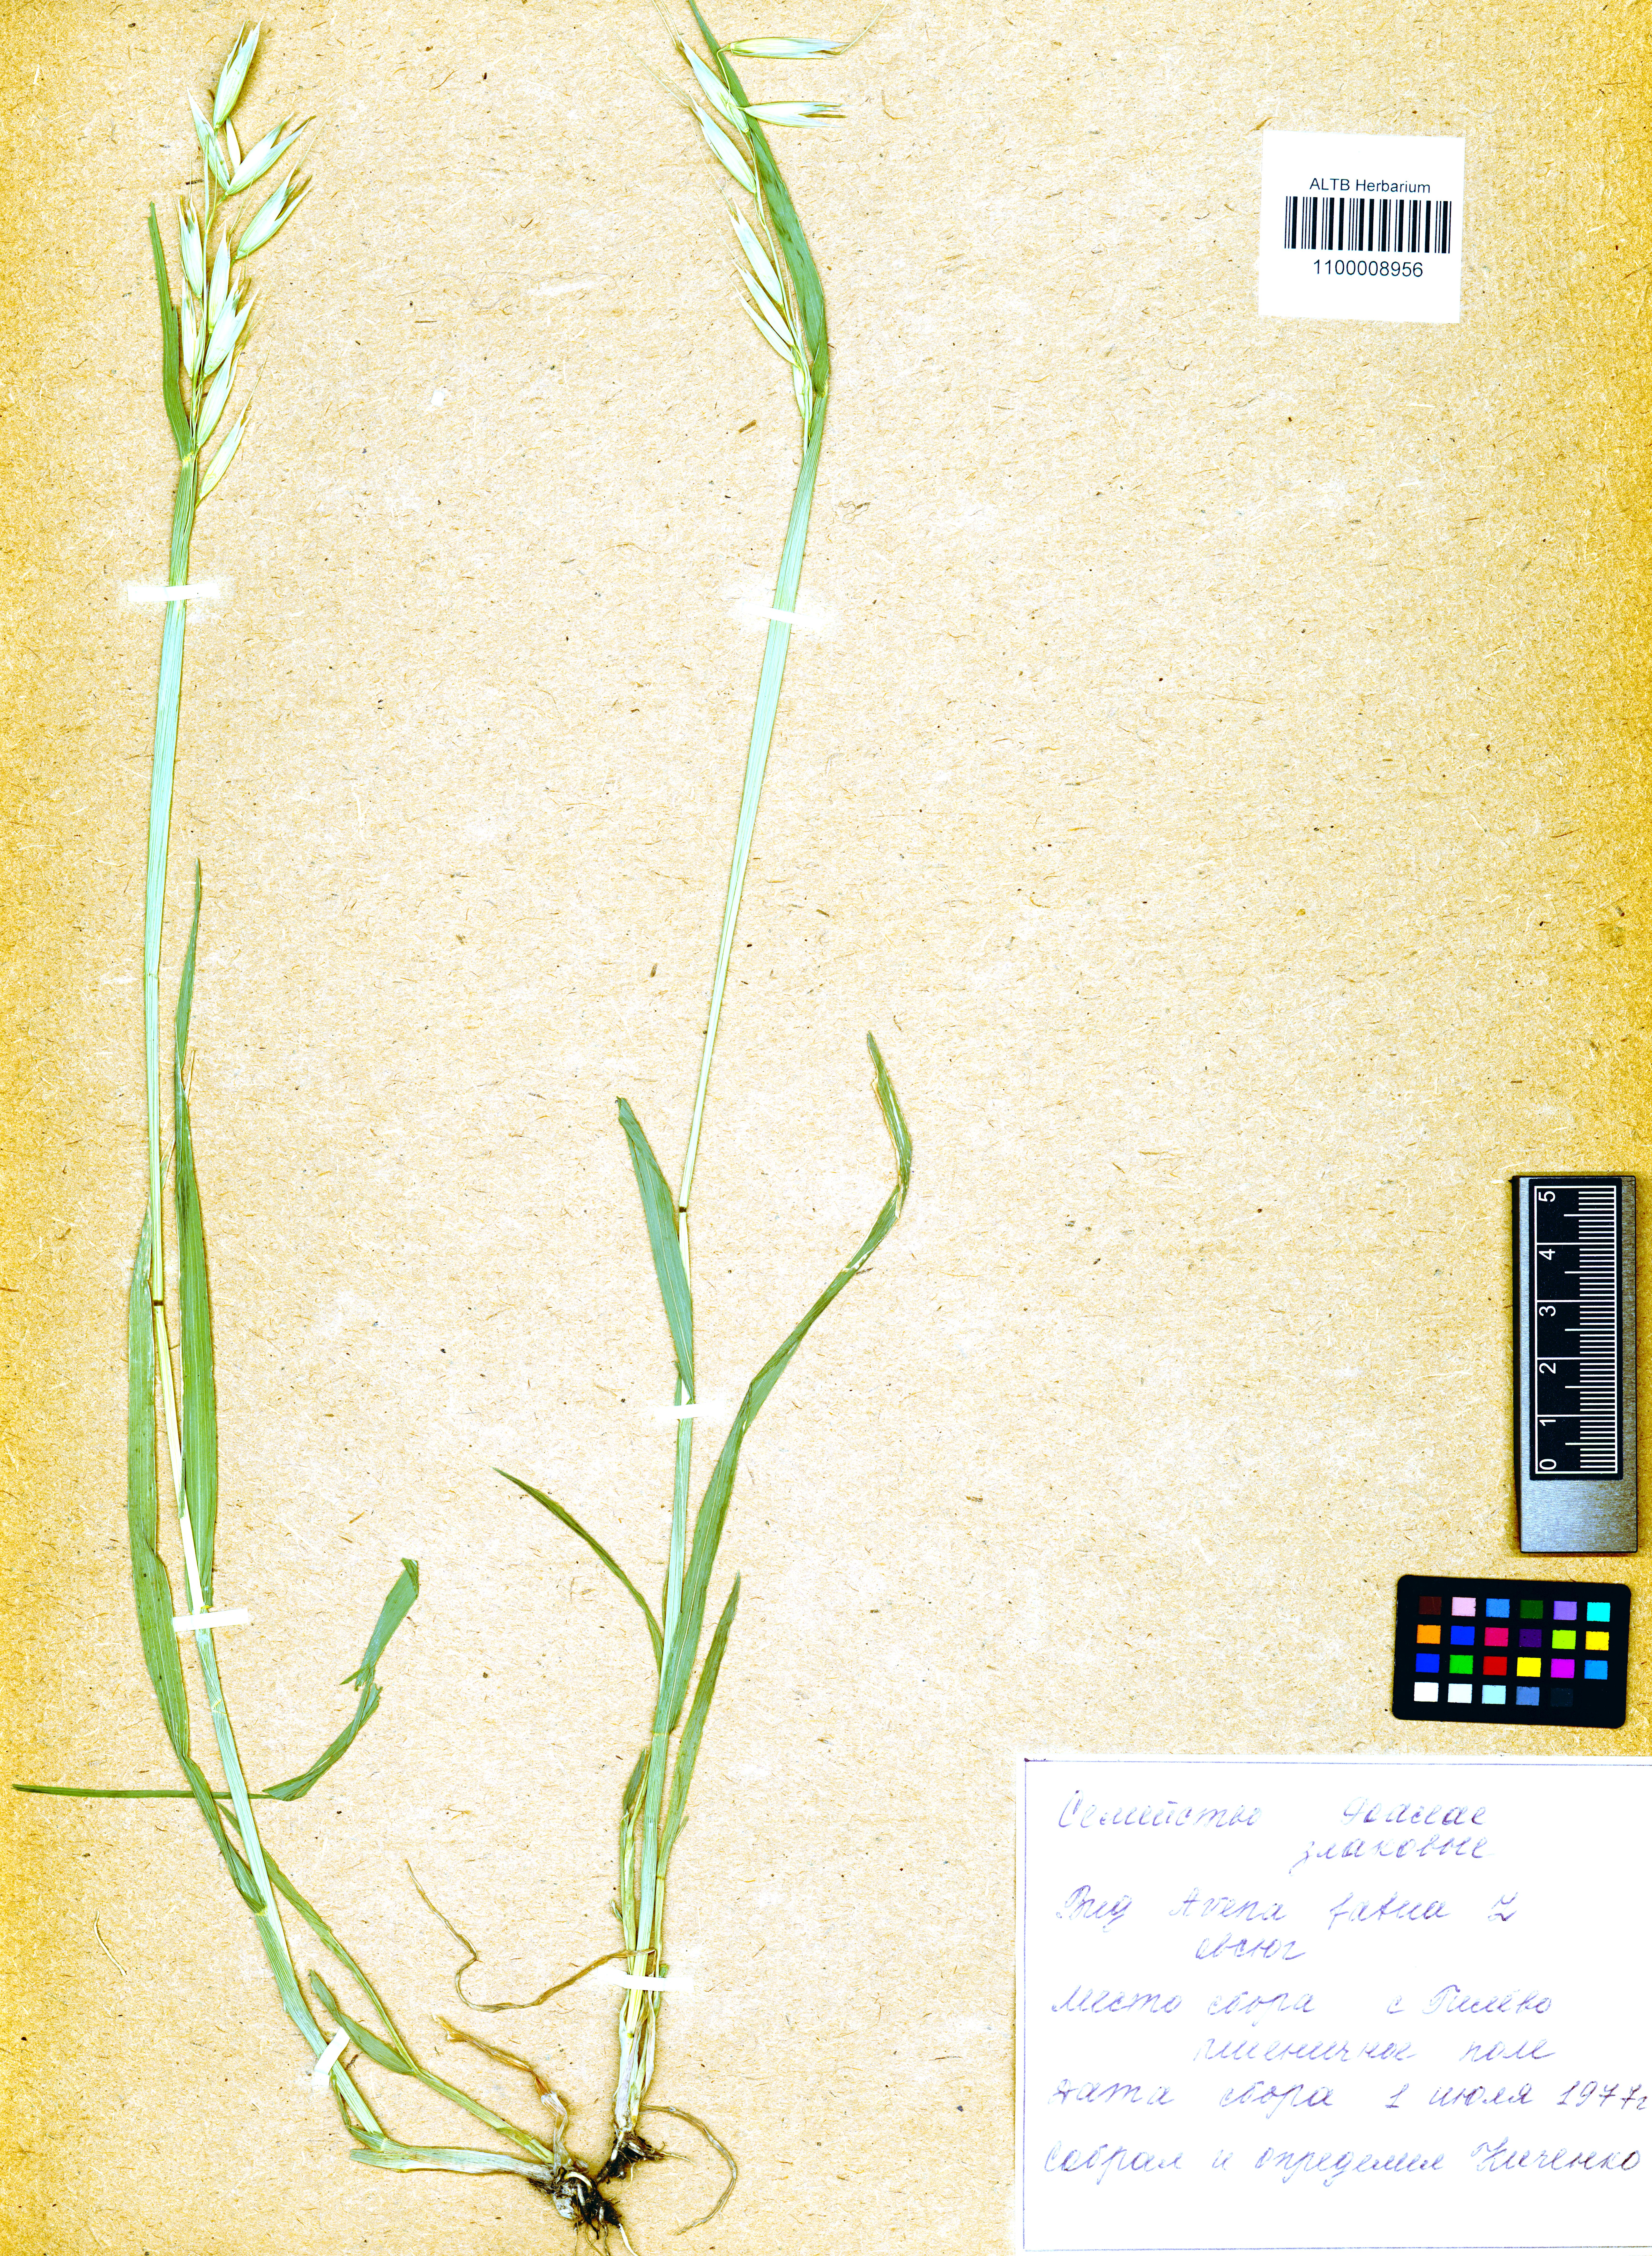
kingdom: Plantae
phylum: Tracheophyta
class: Liliopsida
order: Poales
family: Poaceae
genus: Avena
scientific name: Avena fatua
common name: Wild oat
